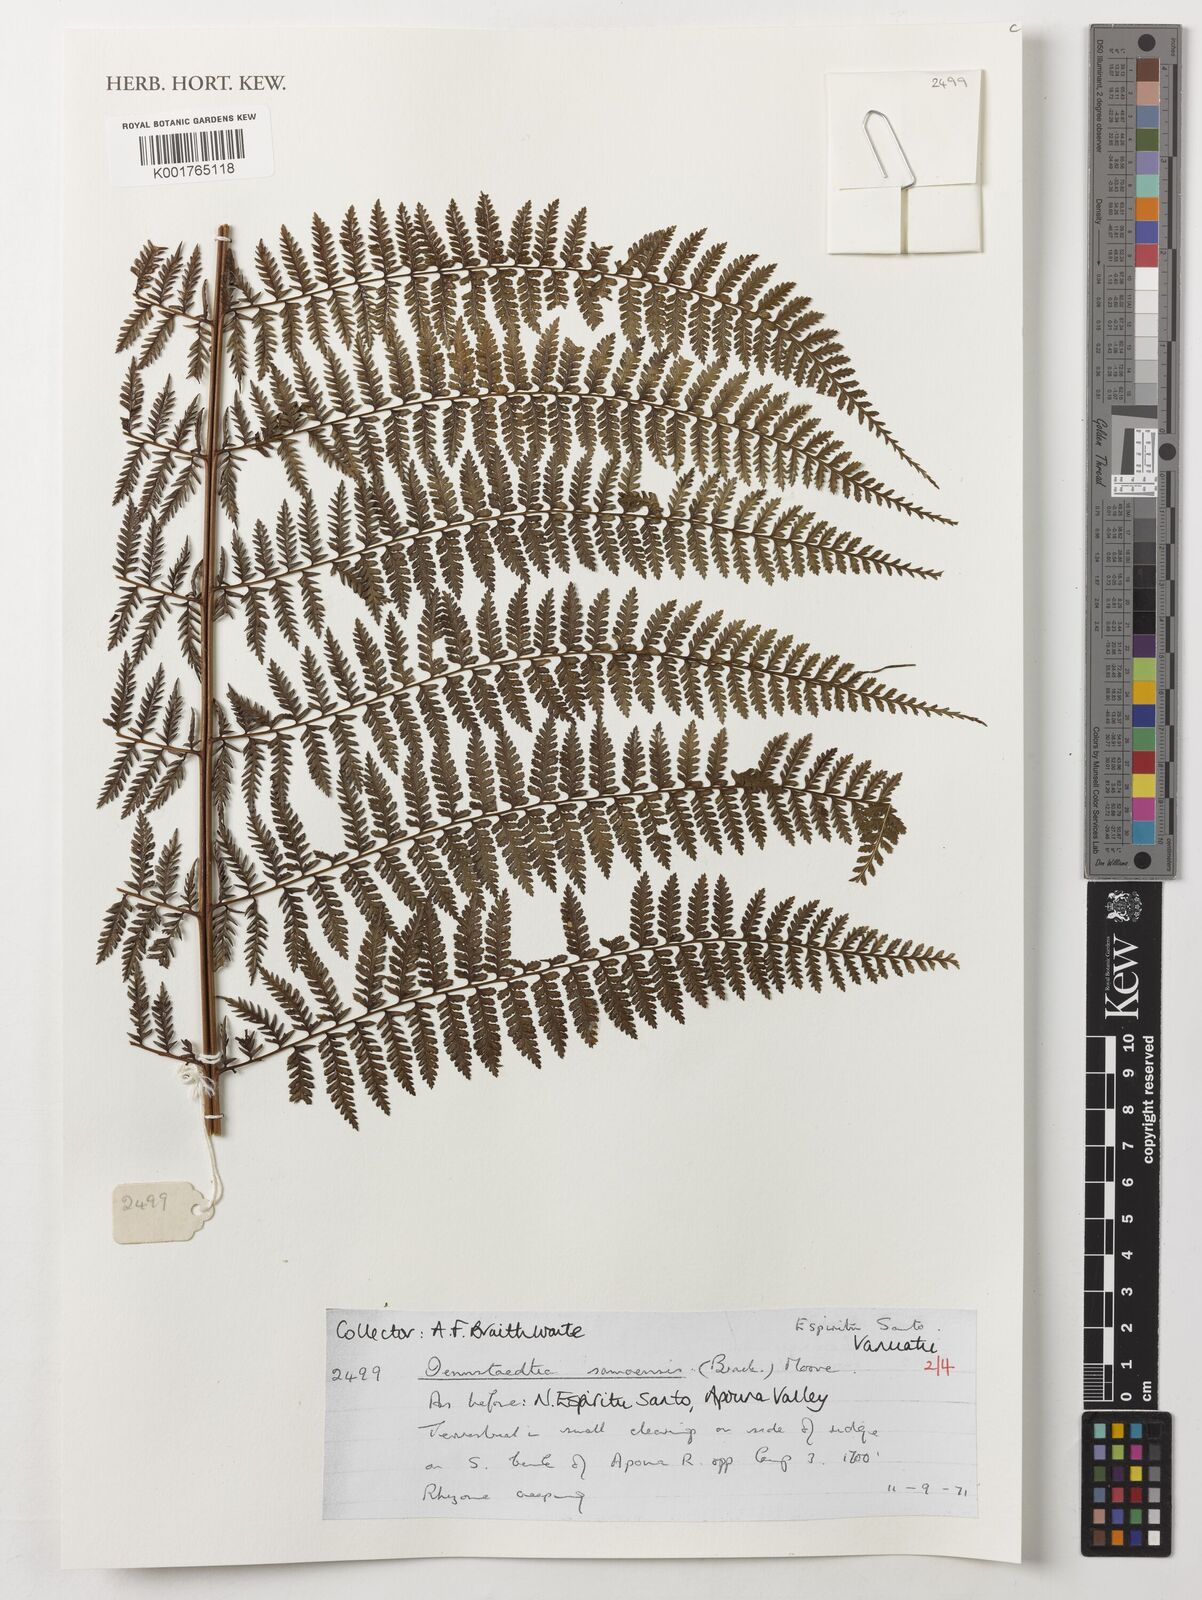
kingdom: Plantae
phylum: Tracheophyta
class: Polypodiopsida
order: Polypodiales
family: Dennstaedtiaceae
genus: Dennstaedtia
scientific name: Dennstaedtia samoensis
